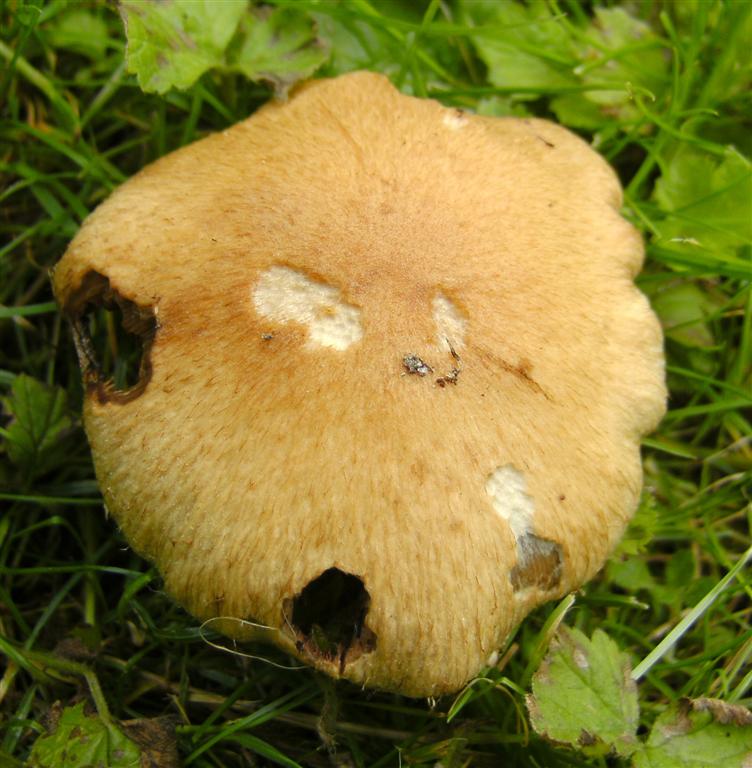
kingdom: Fungi
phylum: Basidiomycota
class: Agaricomycetes
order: Agaricales
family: Psathyrellaceae
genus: Lacrymaria
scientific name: Lacrymaria lacrymabunda
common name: grædende mørkhat
